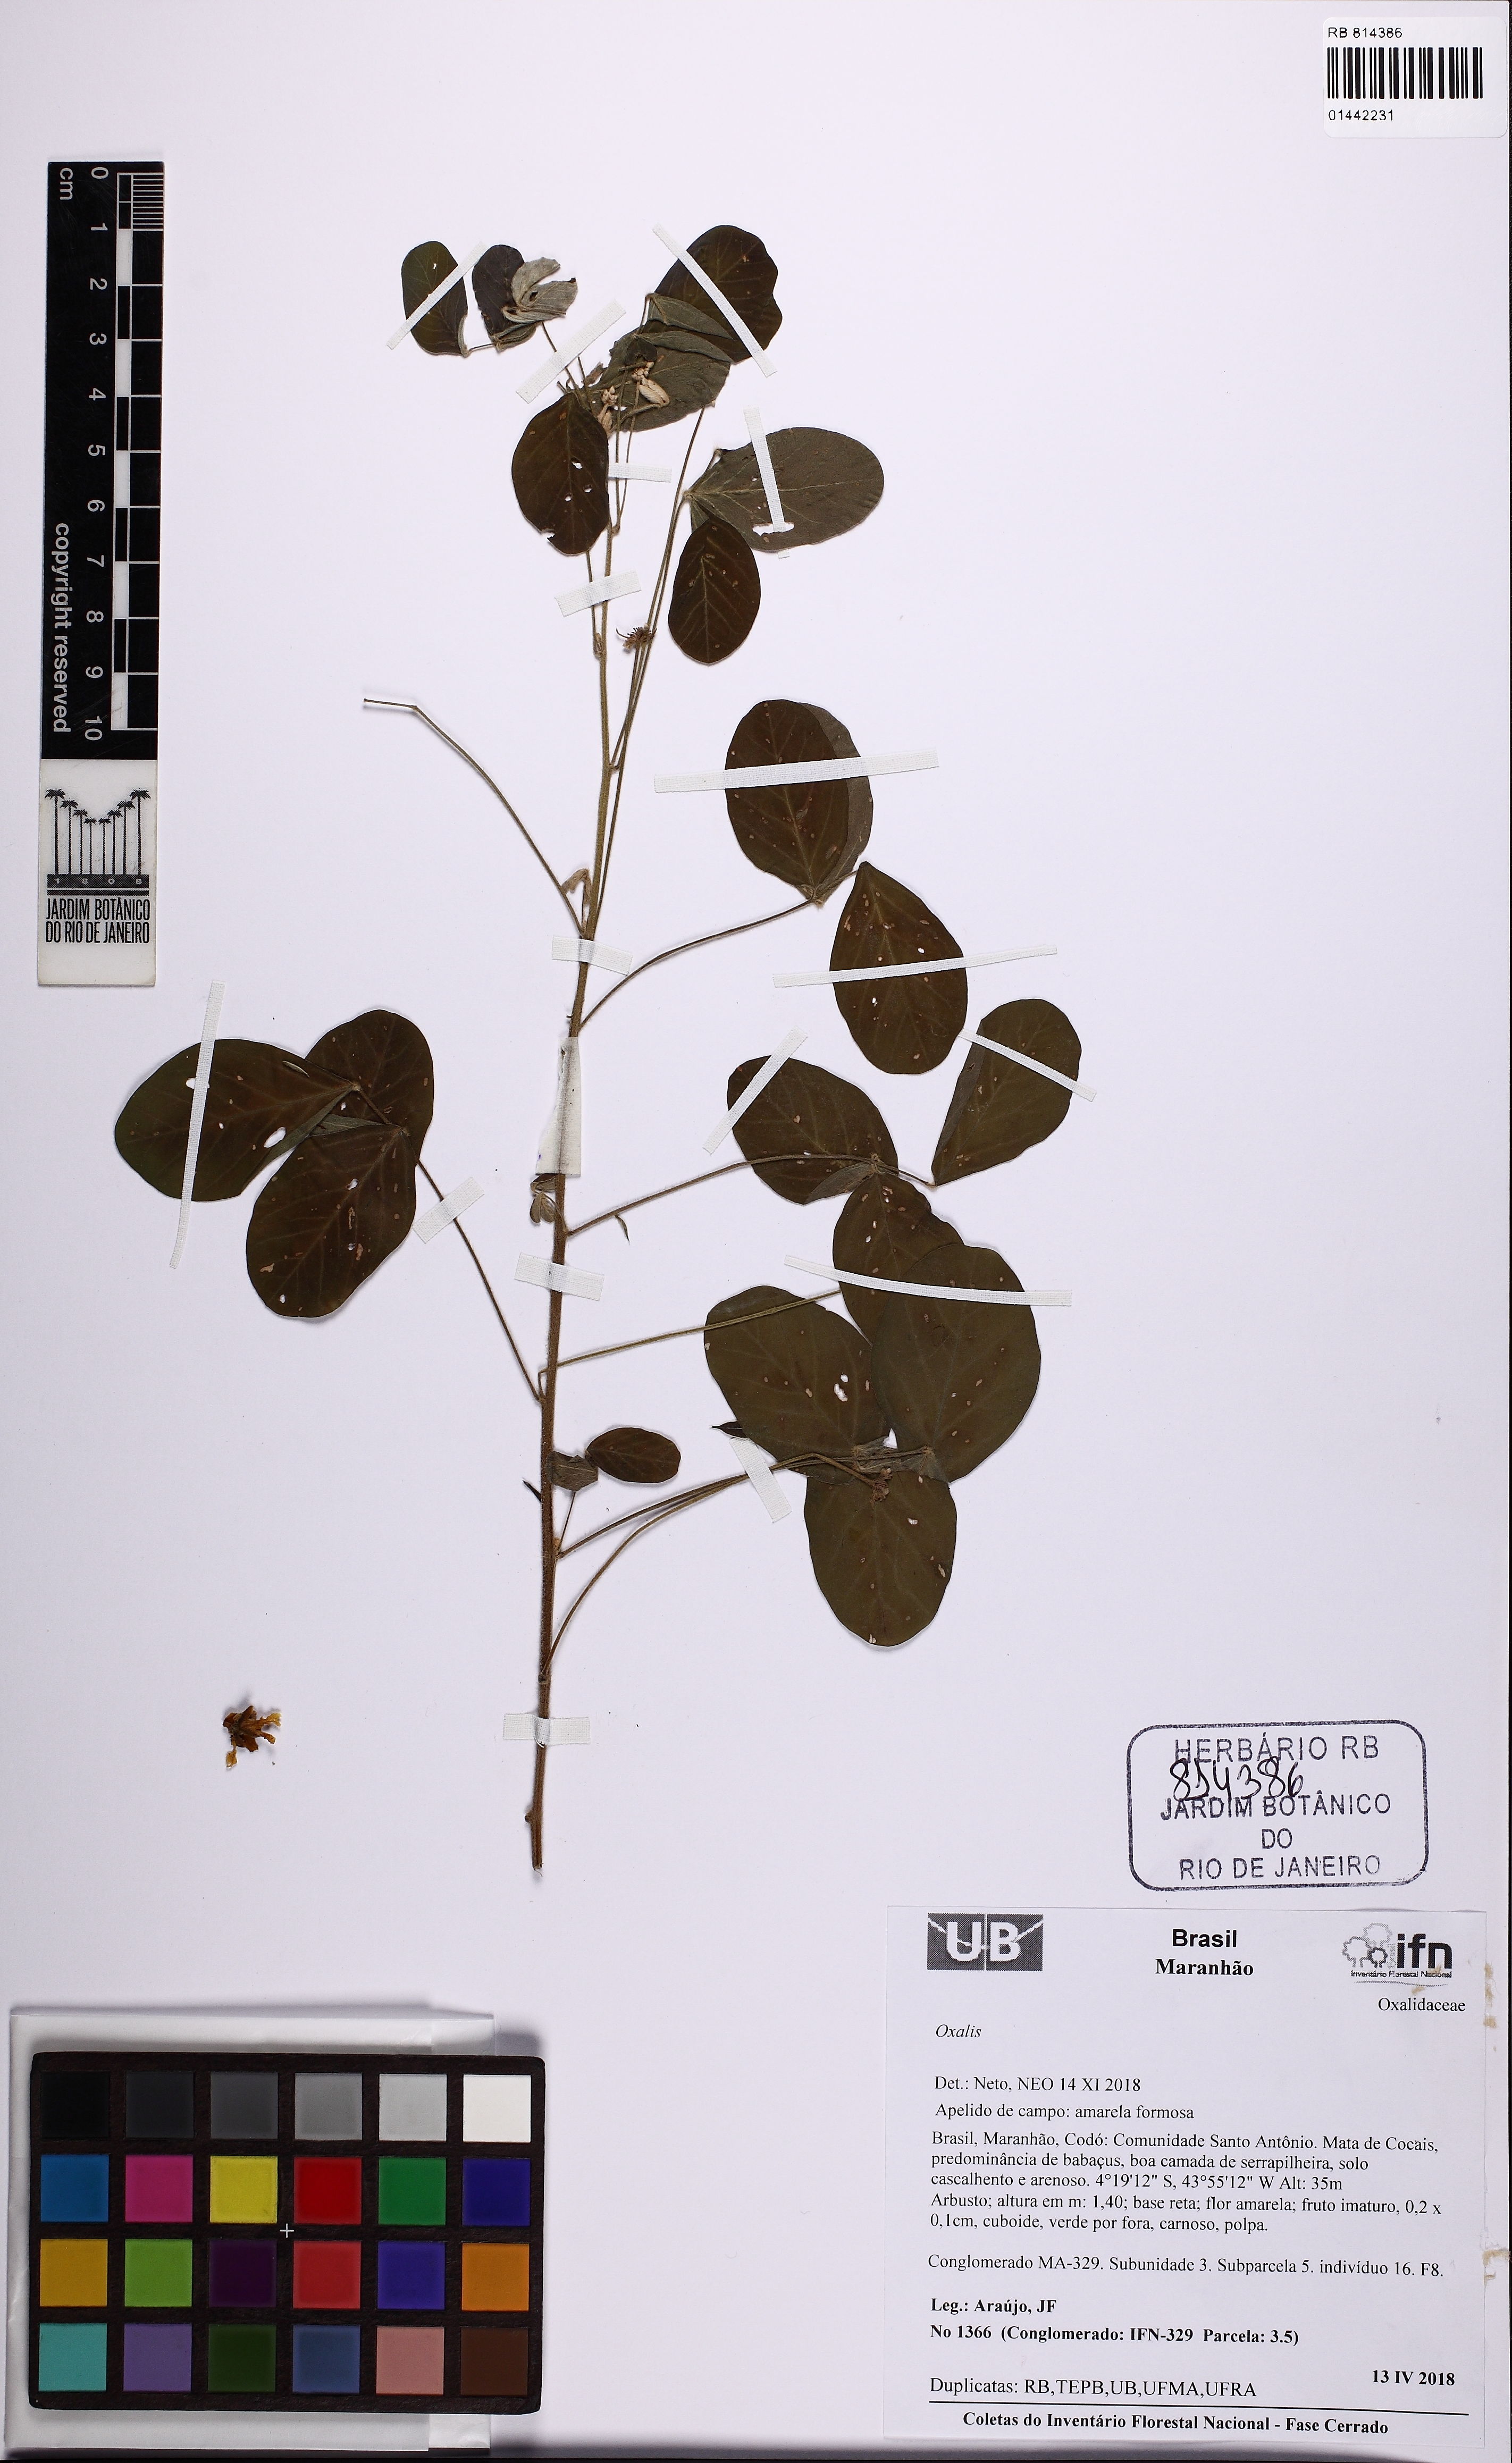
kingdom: Plantae
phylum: Tracheophyta
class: Magnoliopsida
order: Oxalidales
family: Oxalidaceae
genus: Oxalis
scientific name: Oxalis
